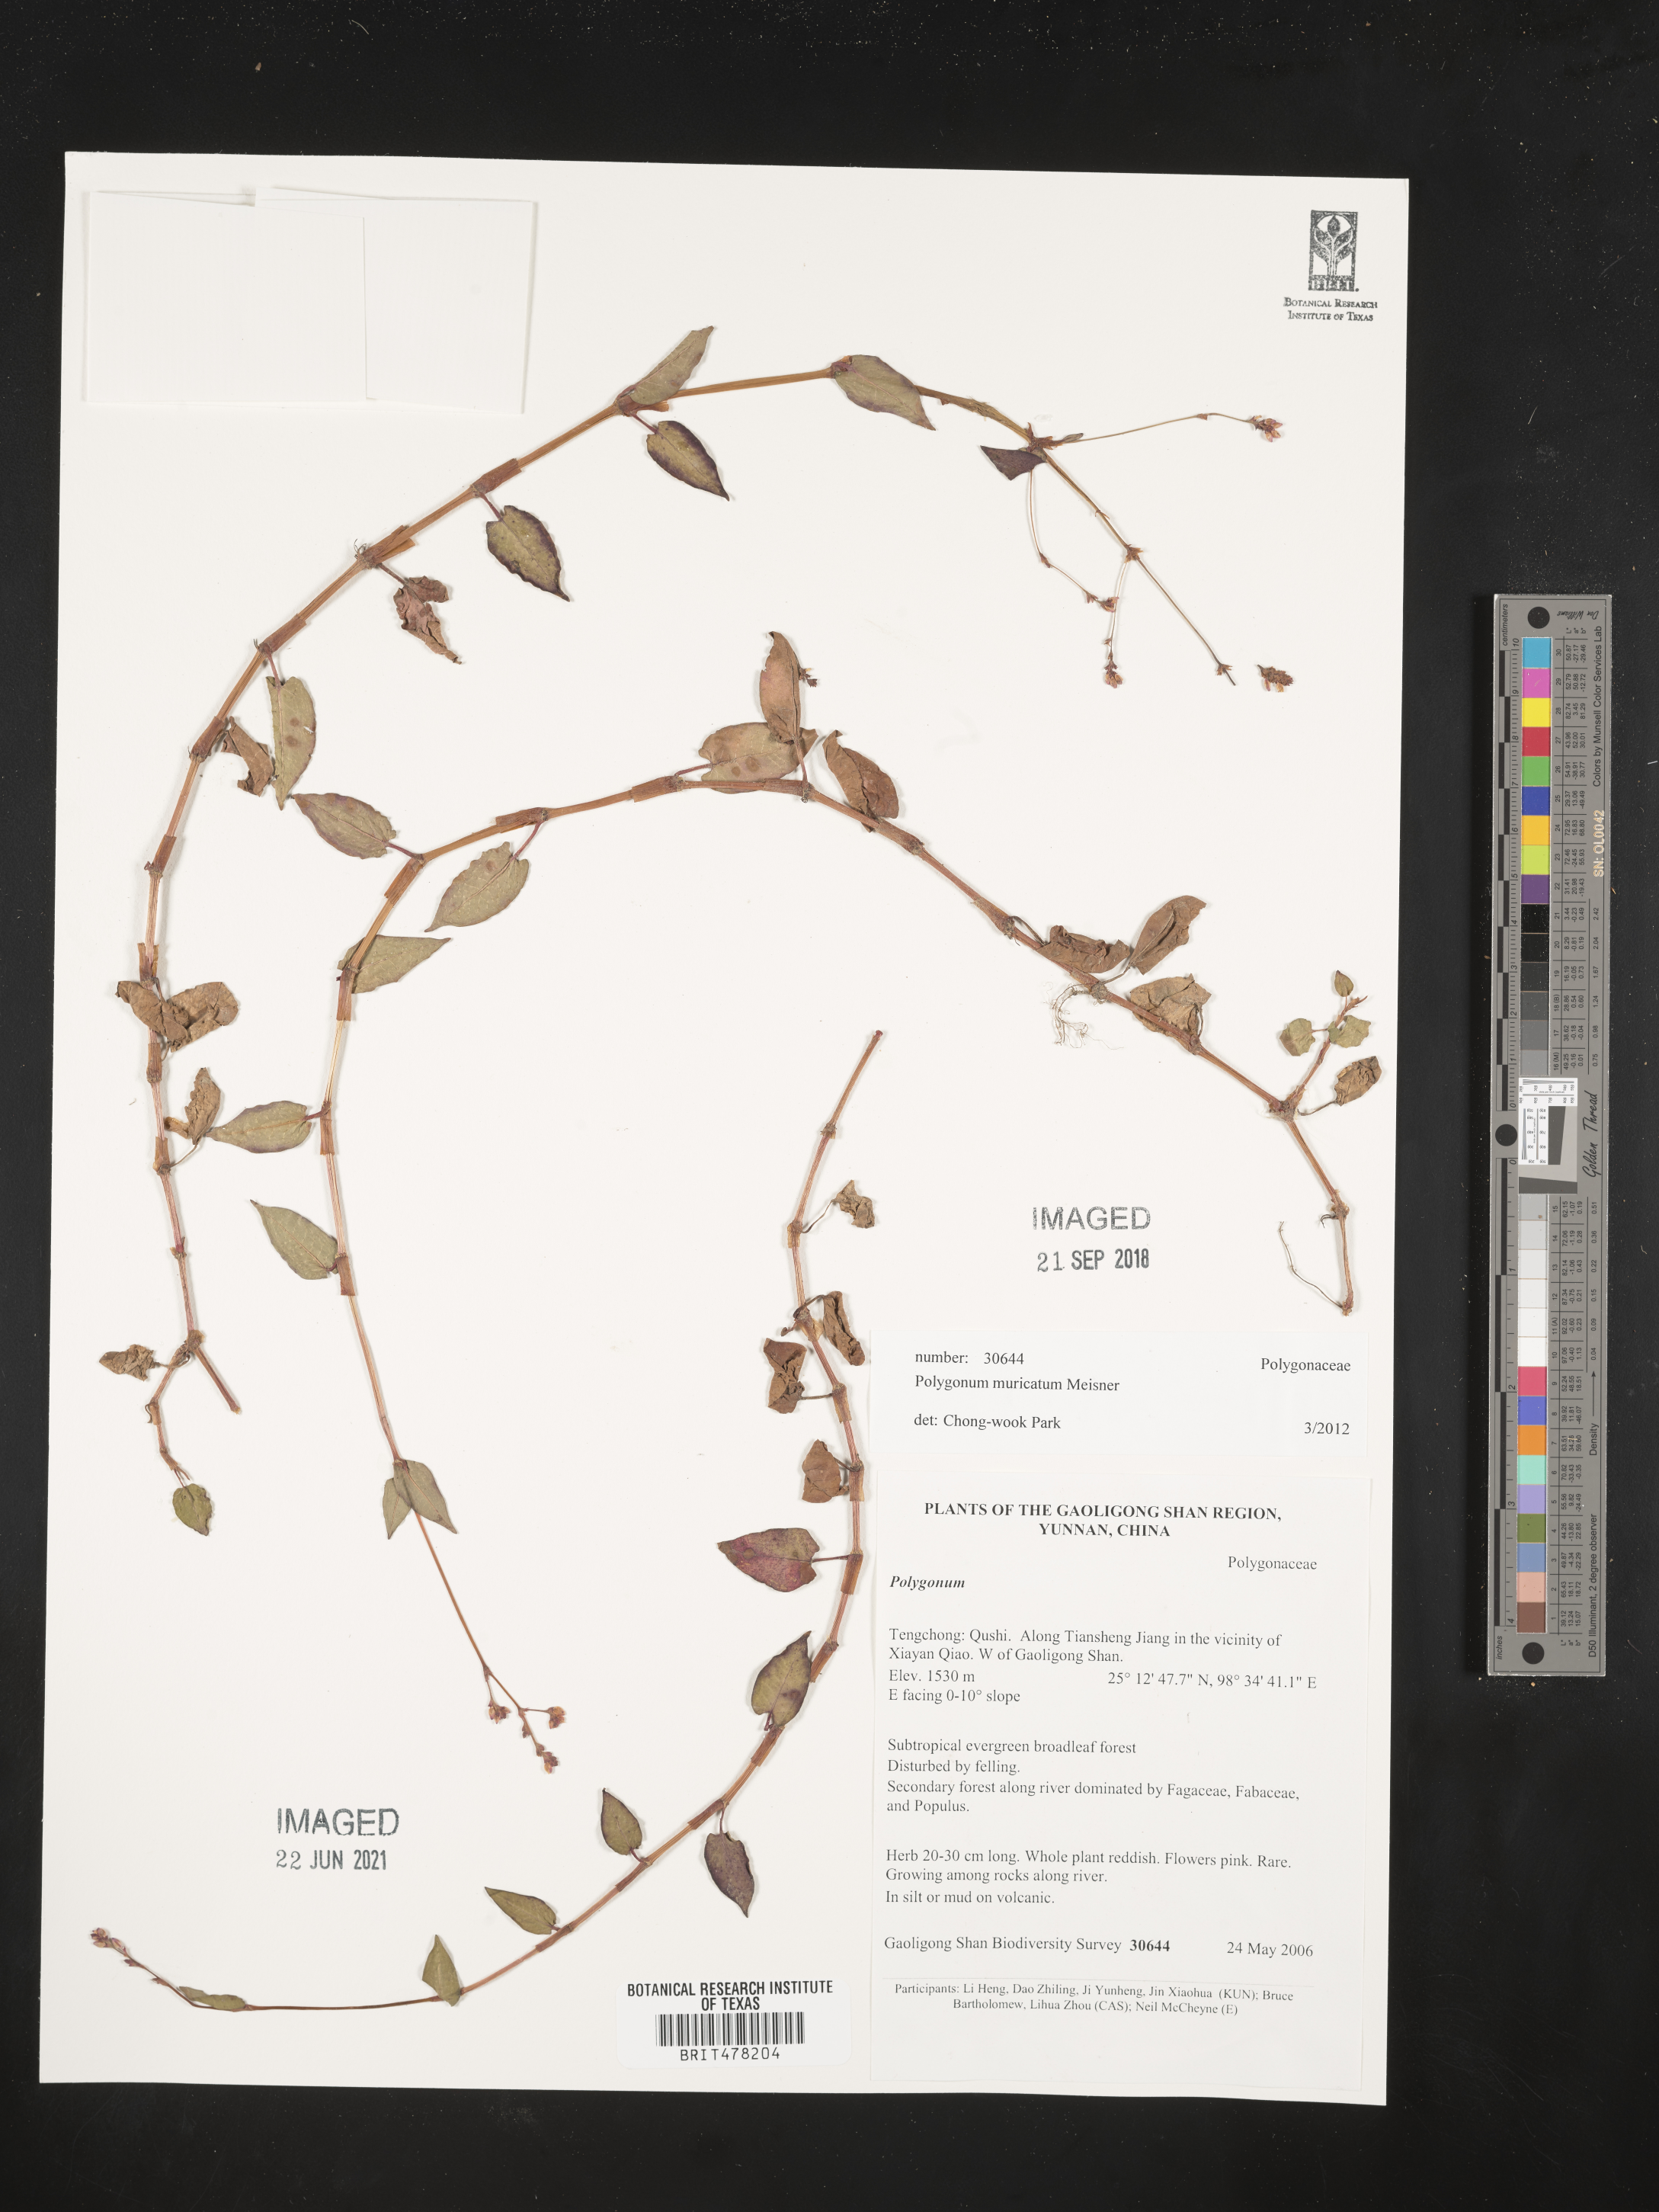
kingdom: Plantae
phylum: Tracheophyta
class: Magnoliopsida
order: Caryophyllales
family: Polygonaceae
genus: Persicaria
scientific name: Persicaria muricata
